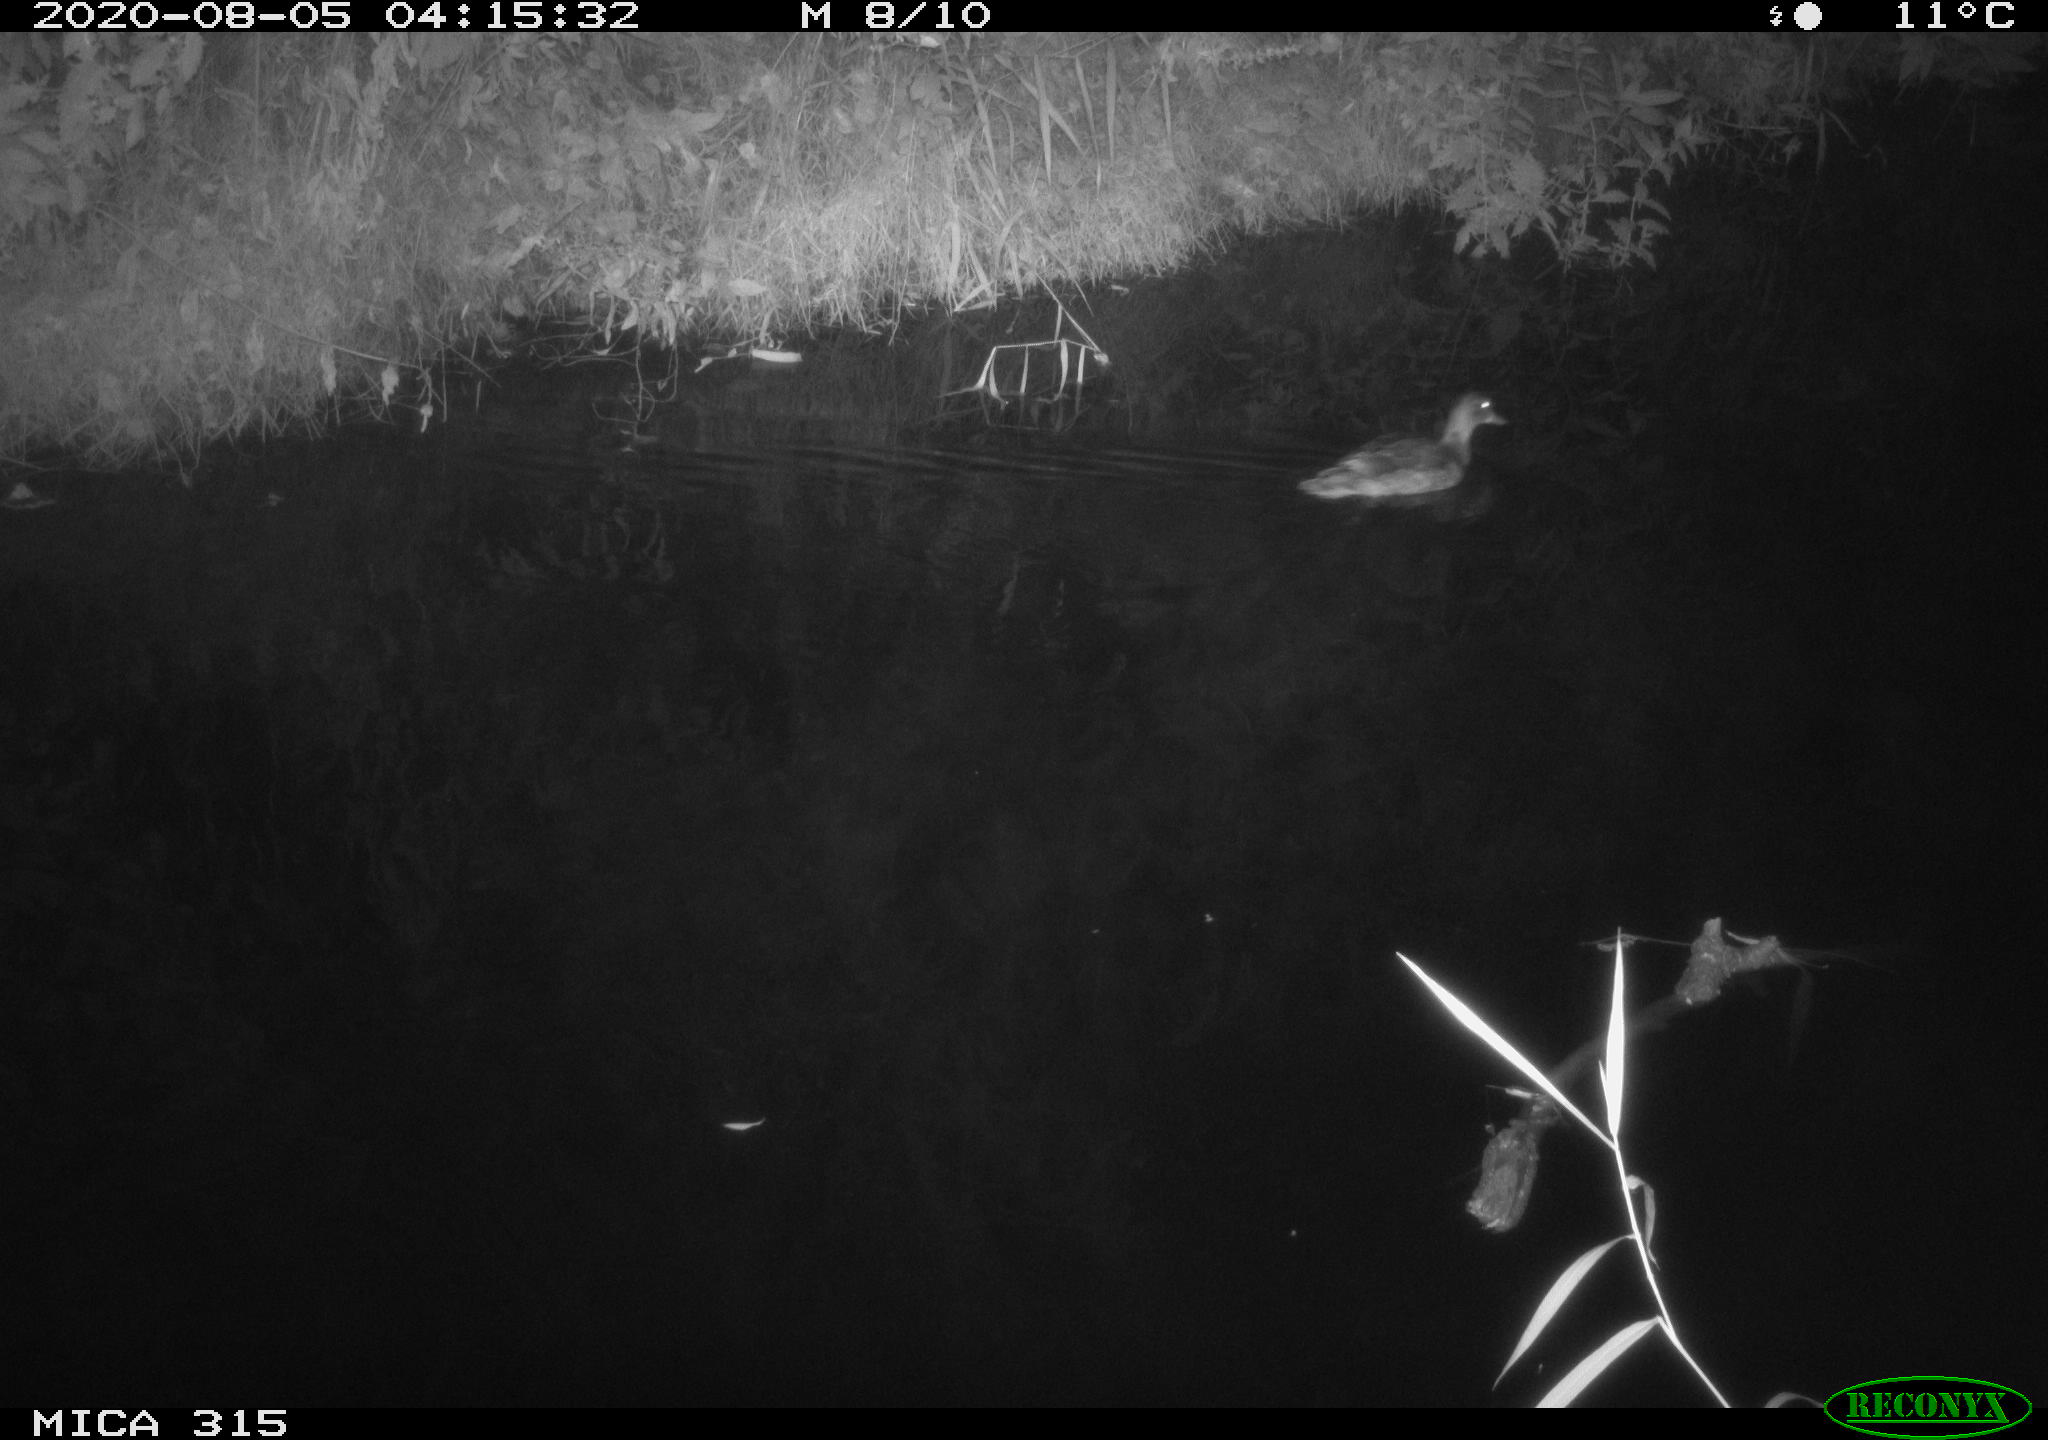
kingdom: Animalia
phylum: Chordata
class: Aves
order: Anseriformes
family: Anatidae
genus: Anas
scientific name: Anas platyrhynchos
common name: Mallard
